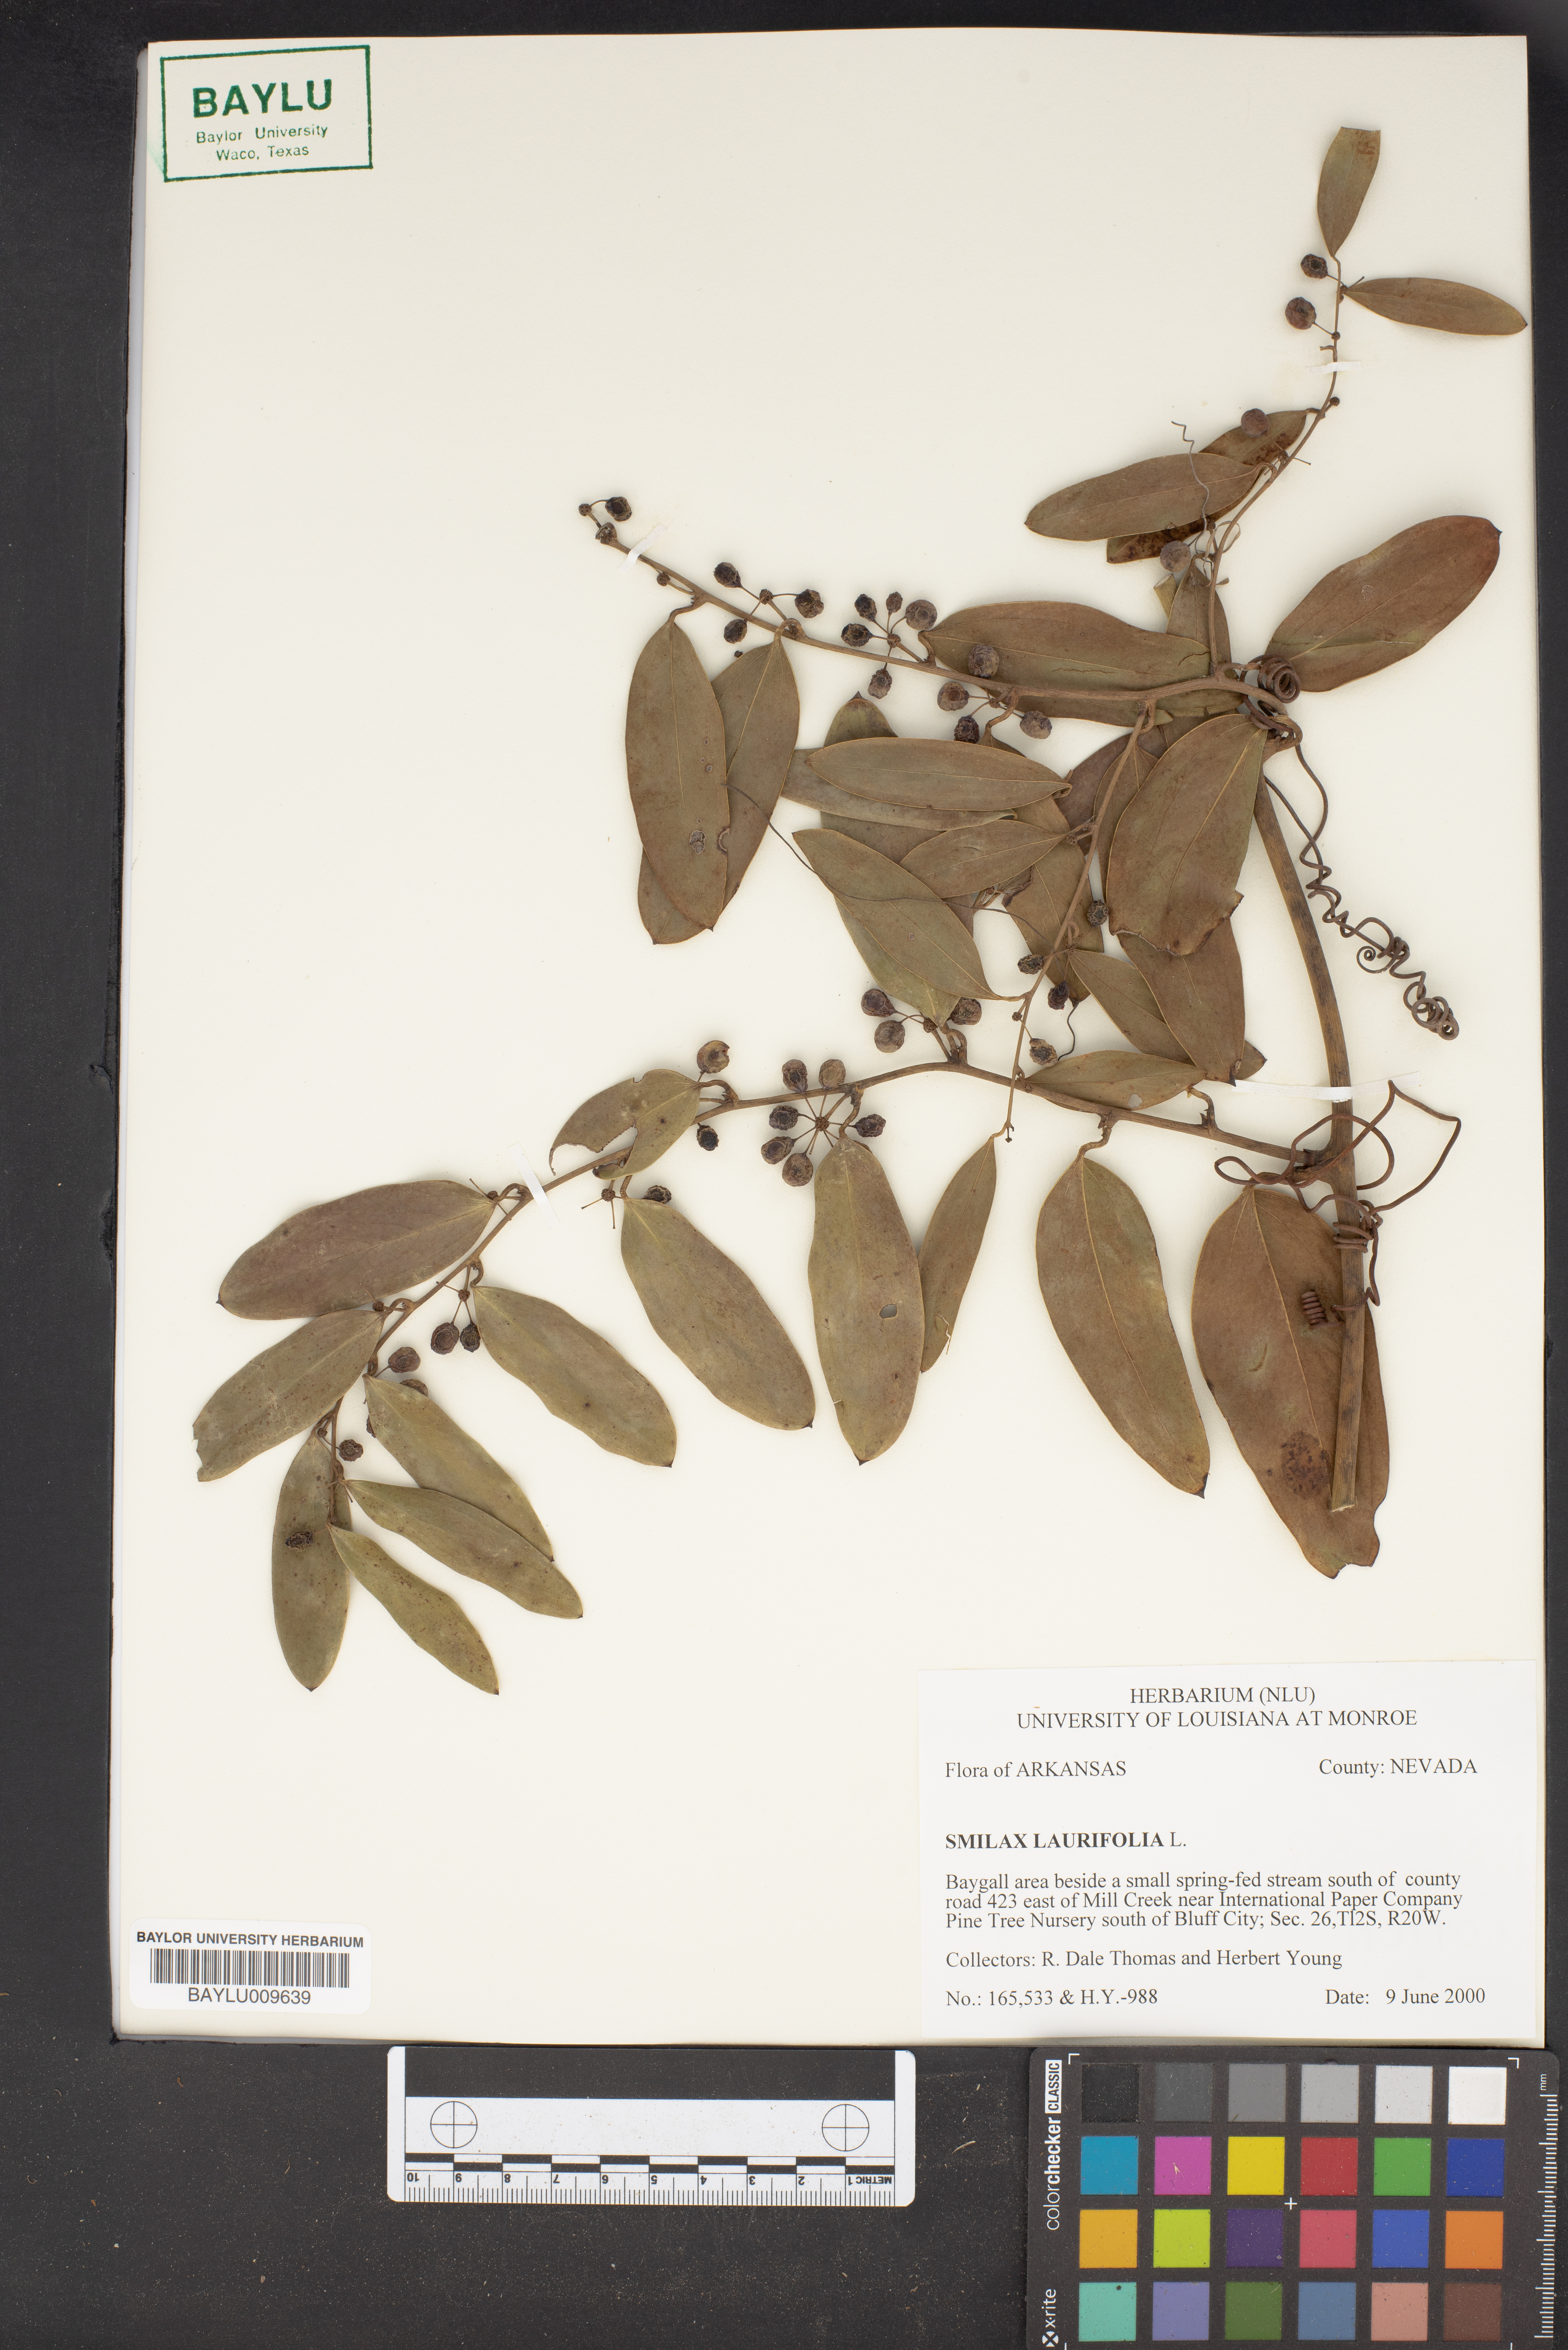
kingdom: Plantae
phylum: Tracheophyta
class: Liliopsida
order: Liliales
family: Smilacaceae
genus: Smilax
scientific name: Smilax laurifolia
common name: Bamboovine
